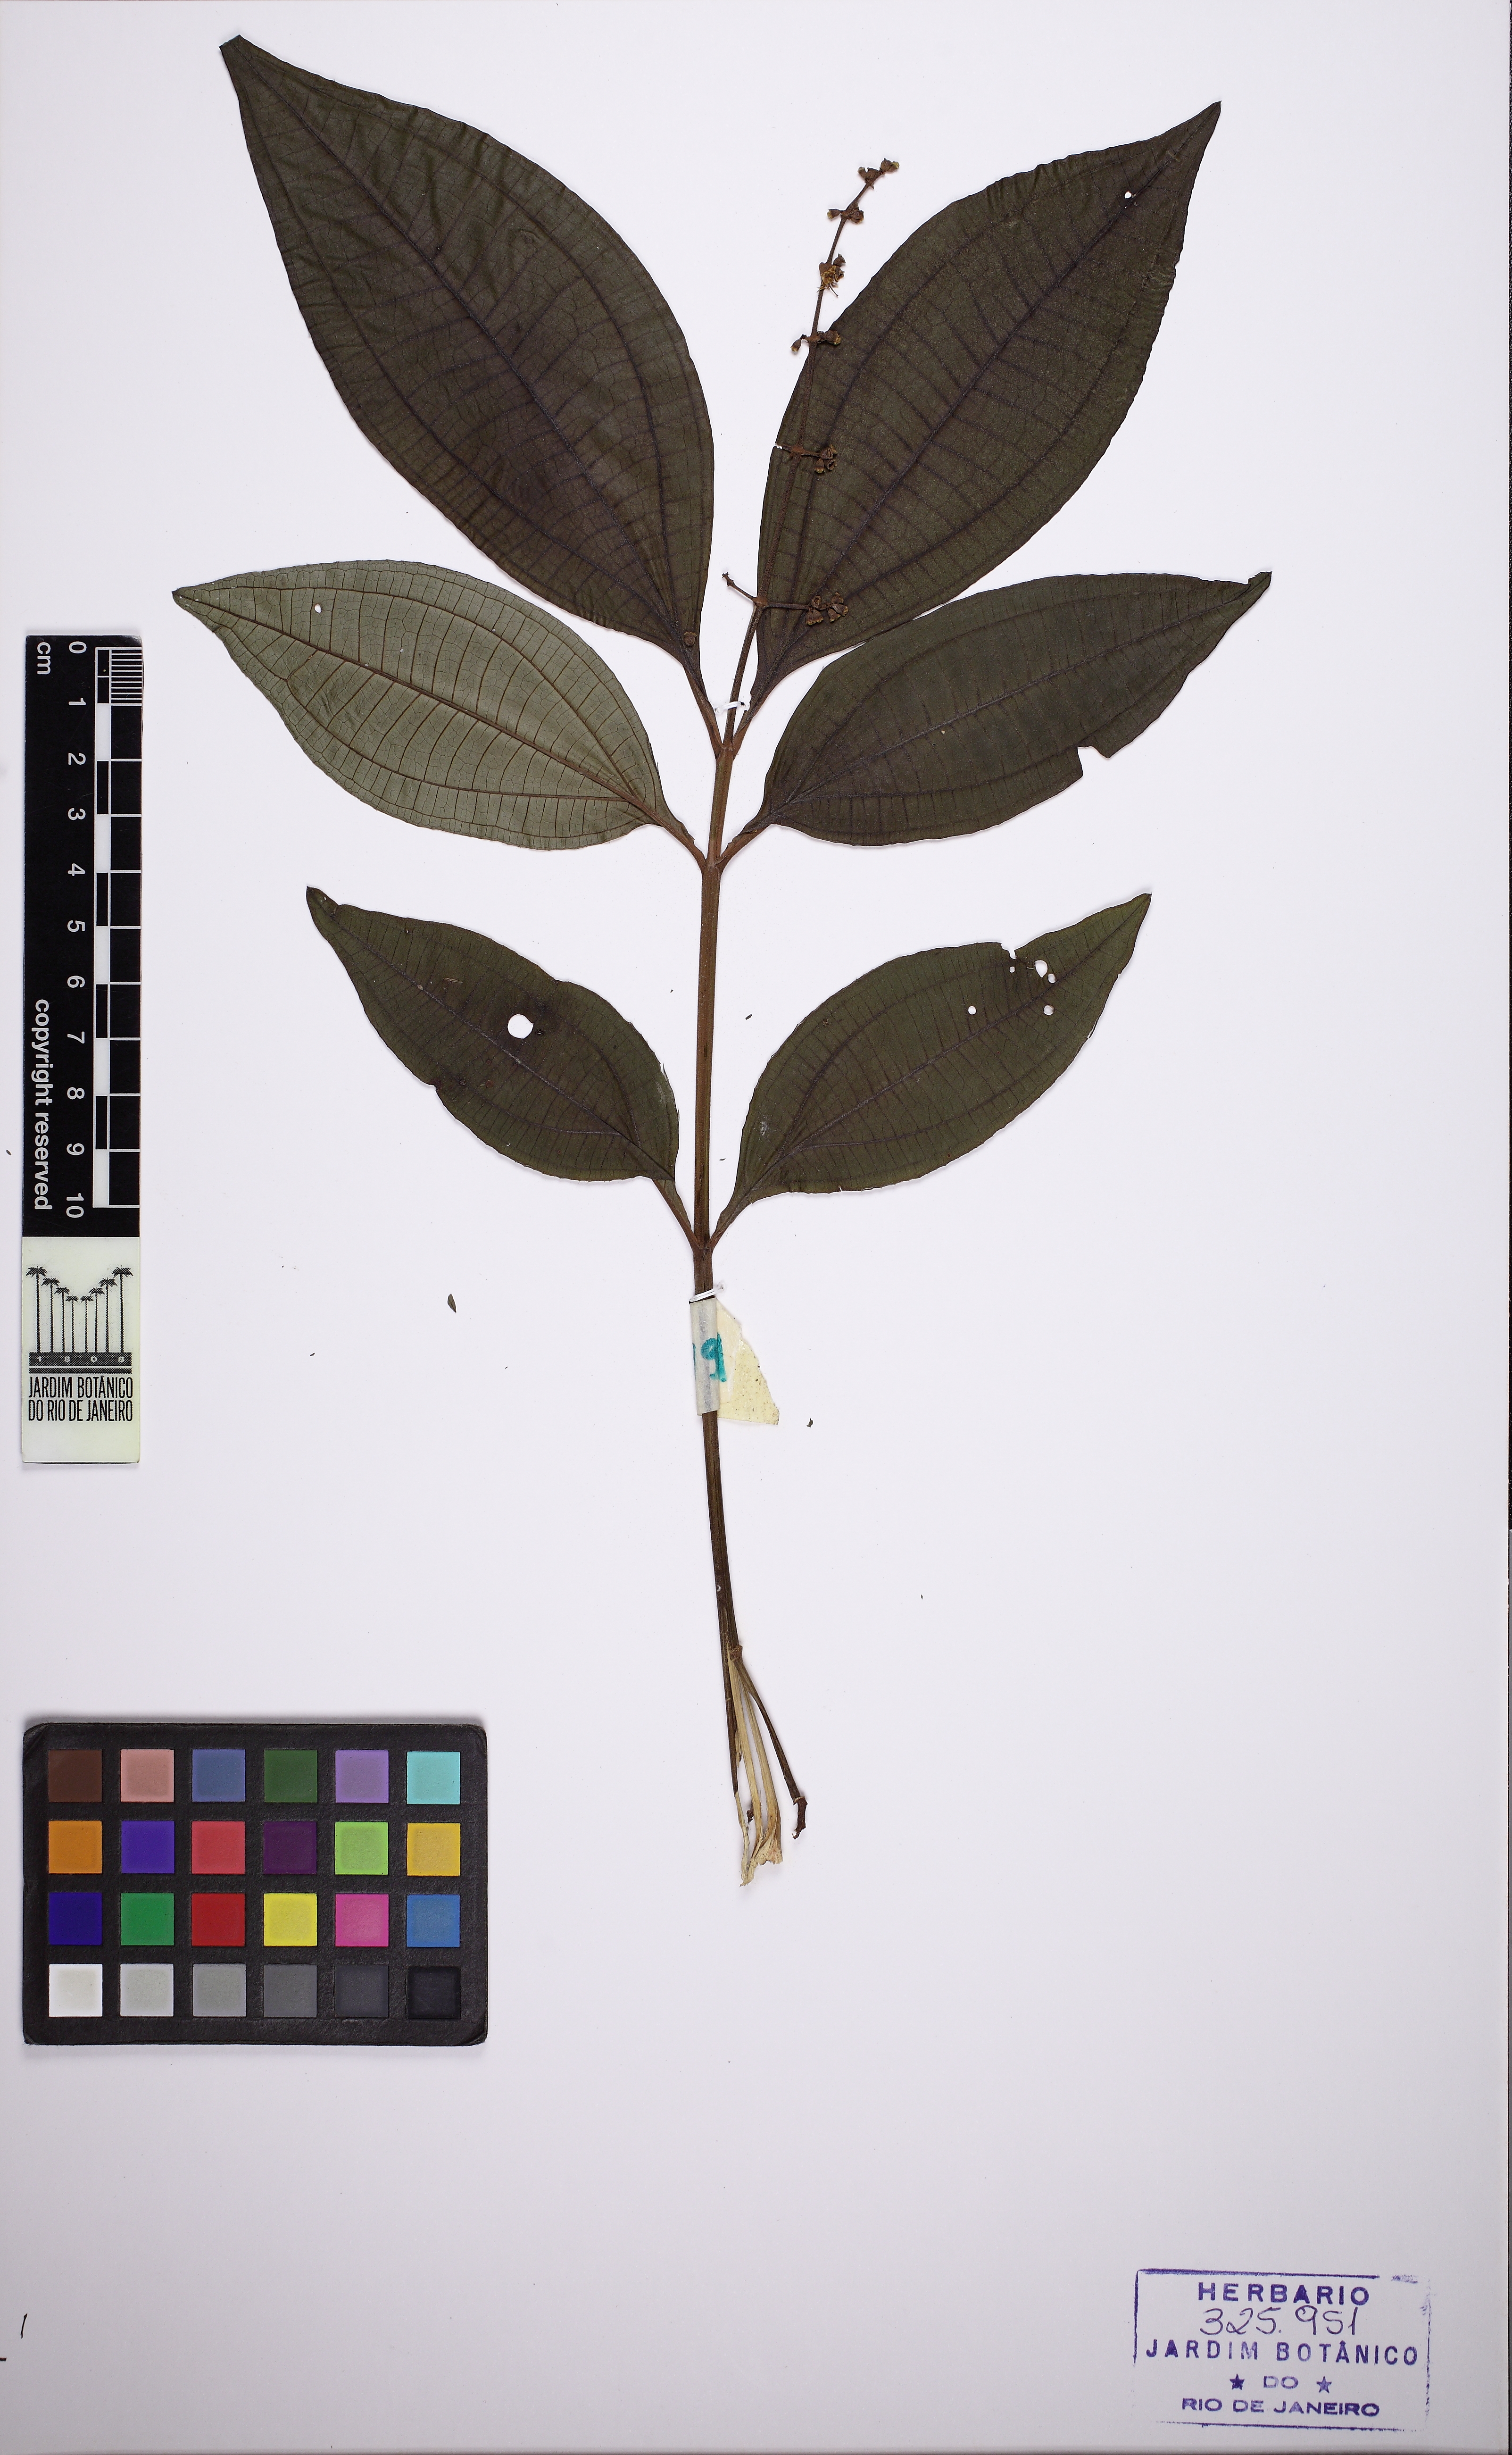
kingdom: Plantae
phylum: Tracheophyta
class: Magnoliopsida
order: Myrtales
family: Melastomataceae
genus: Miconia
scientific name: Miconia prasina
